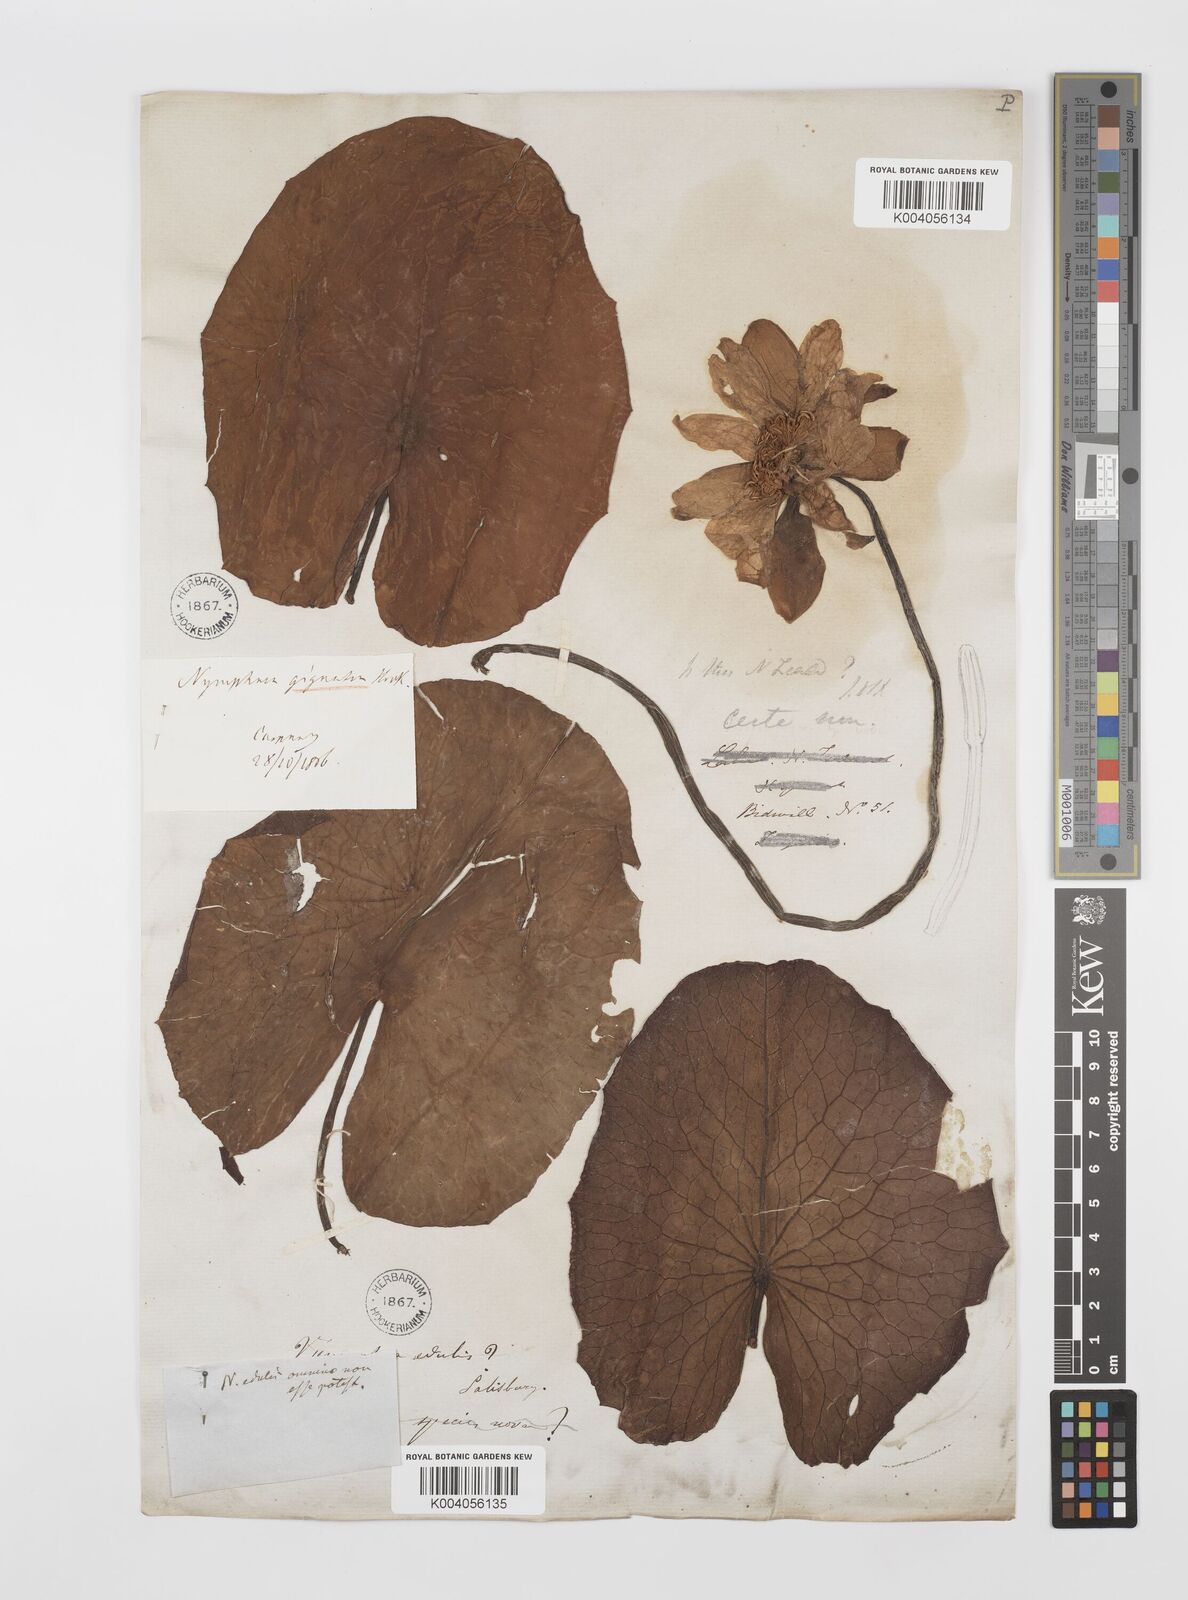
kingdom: Plantae
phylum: Tracheophyta
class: Magnoliopsida
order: Nymphaeales
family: Nymphaeaceae
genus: Nymphaea
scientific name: Nymphaea gigantea
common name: Giant water-lily
